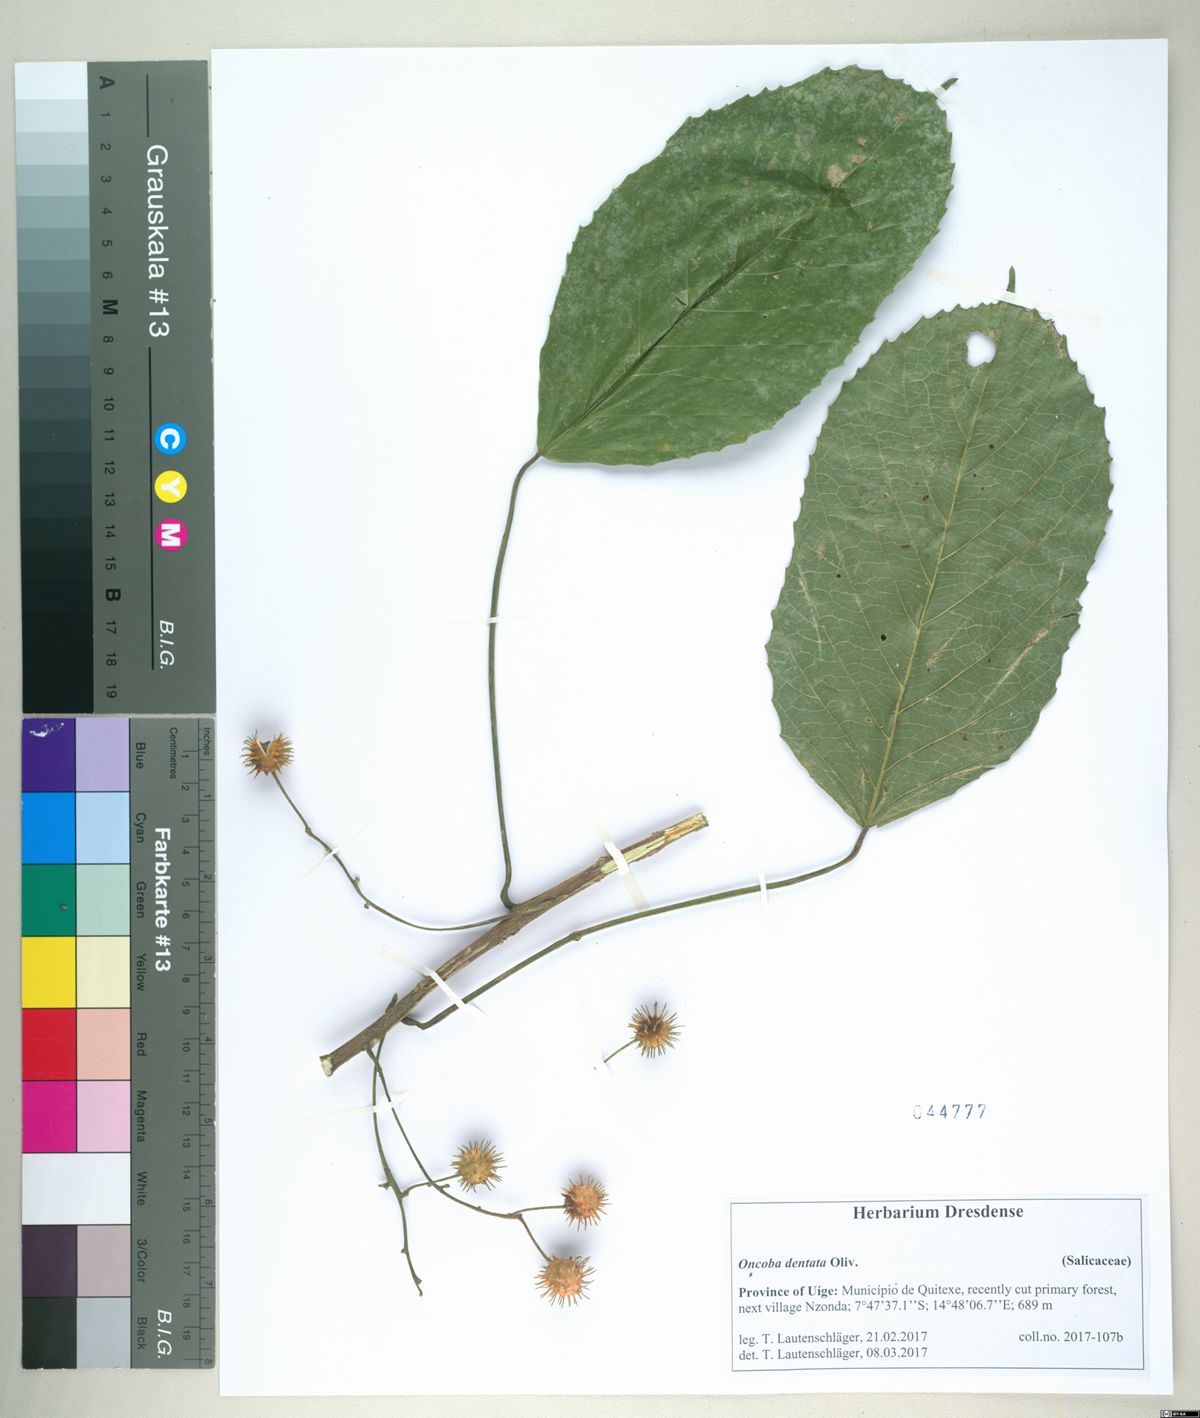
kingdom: Plantae
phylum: Tracheophyta
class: Magnoliopsida
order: Malpighiales
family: Achariaceae
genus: Lindackeria
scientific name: Lindackeria dentata
